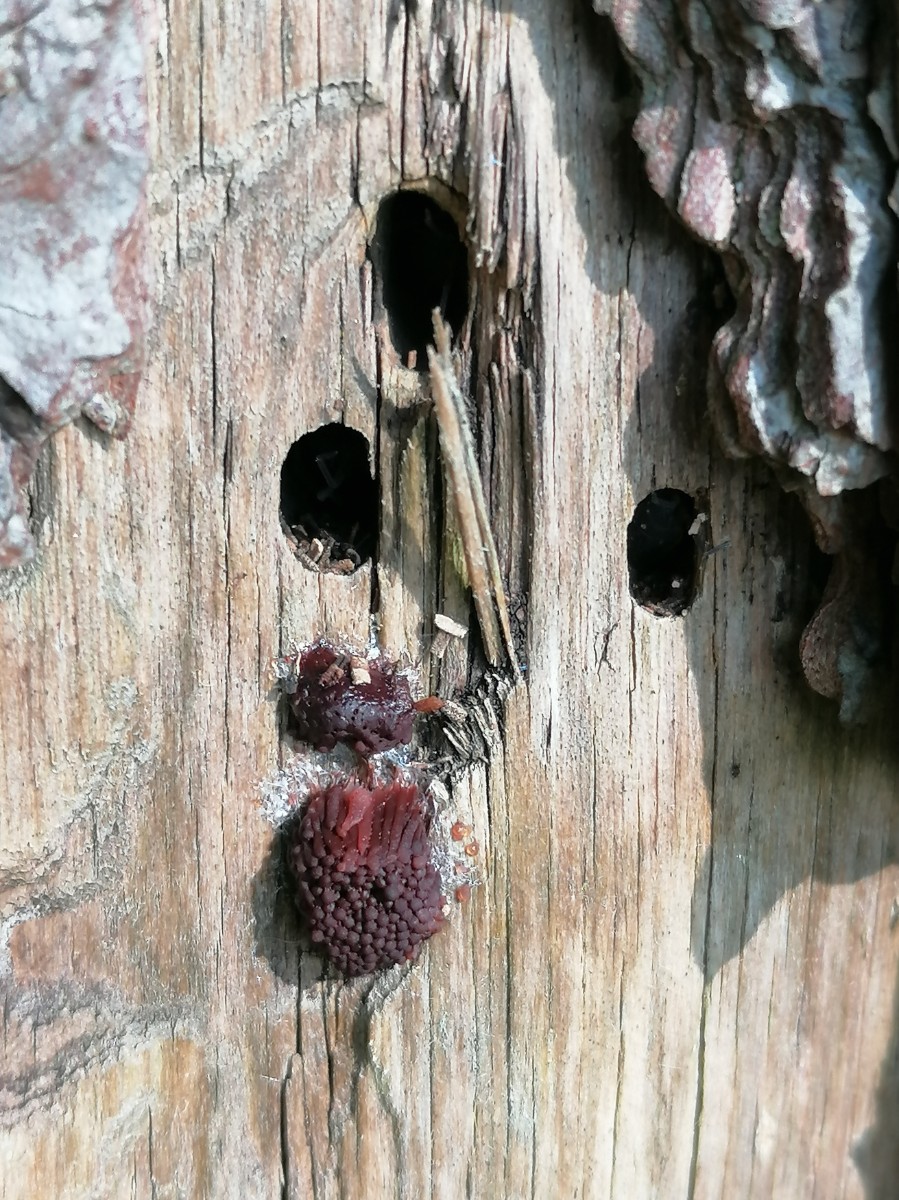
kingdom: Protozoa
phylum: Mycetozoa
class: Myxomycetes
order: Stemonitidales
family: Stemonitidaceae
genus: Stemonitis
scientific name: Stemonitis
